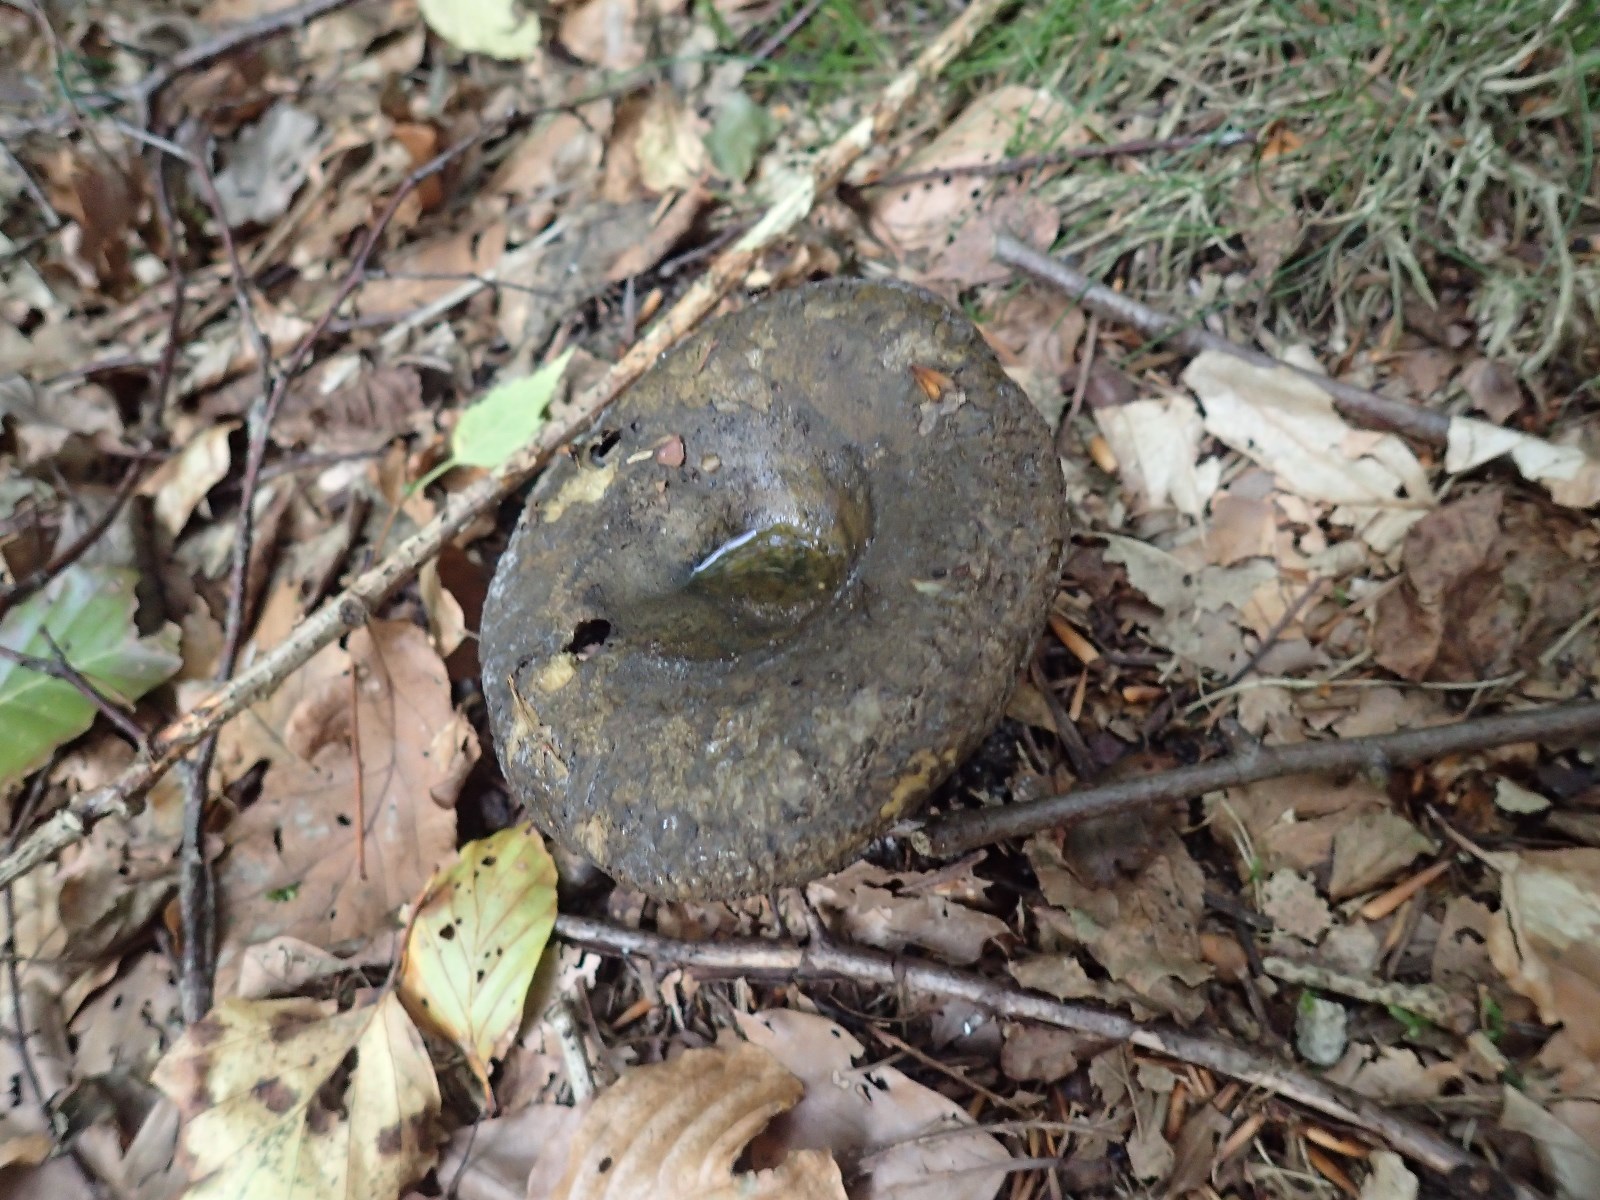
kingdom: Fungi
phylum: Basidiomycota
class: Agaricomycetes
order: Russulales
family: Russulaceae
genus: Lactarius
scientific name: Lactarius necator
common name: manddraber-mælkehat
